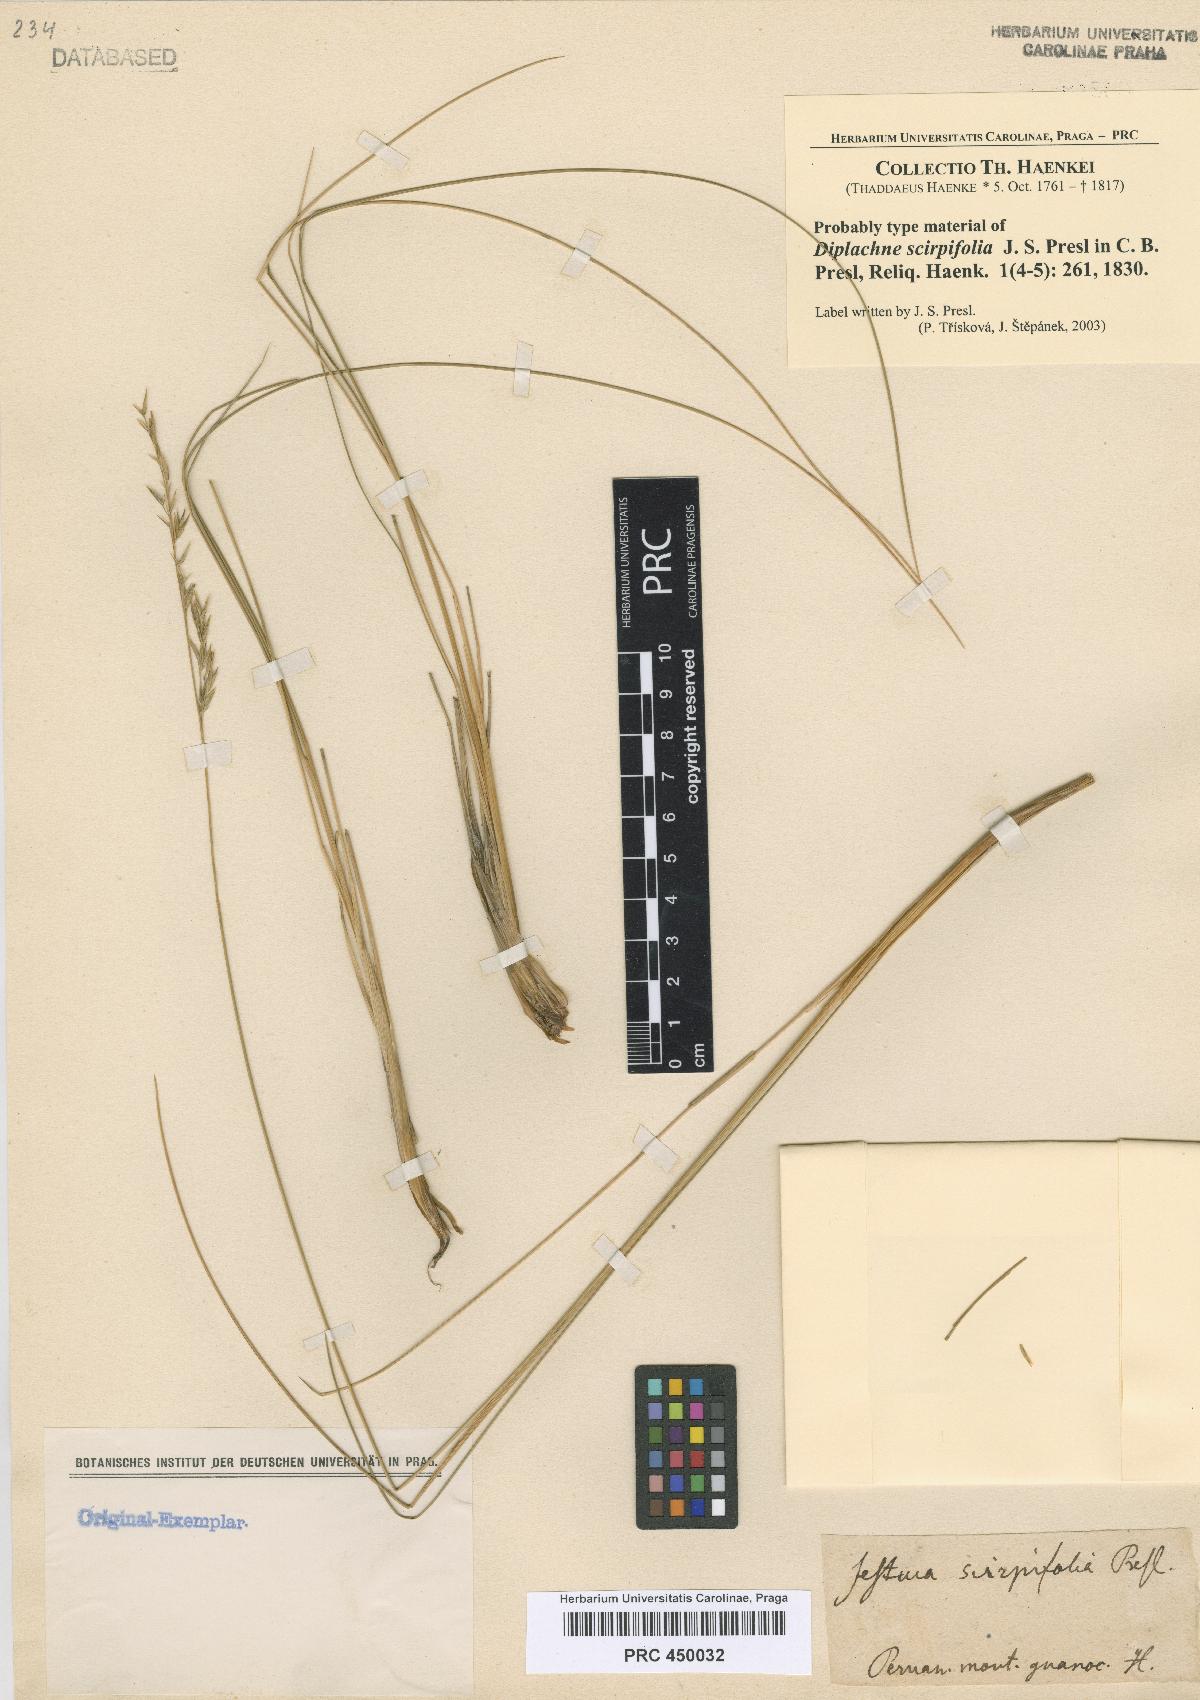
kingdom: Plantae
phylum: Tracheophyta
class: Liliopsida
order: Poales
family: Poaceae
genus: Festuca
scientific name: Festuca dolichophylla
